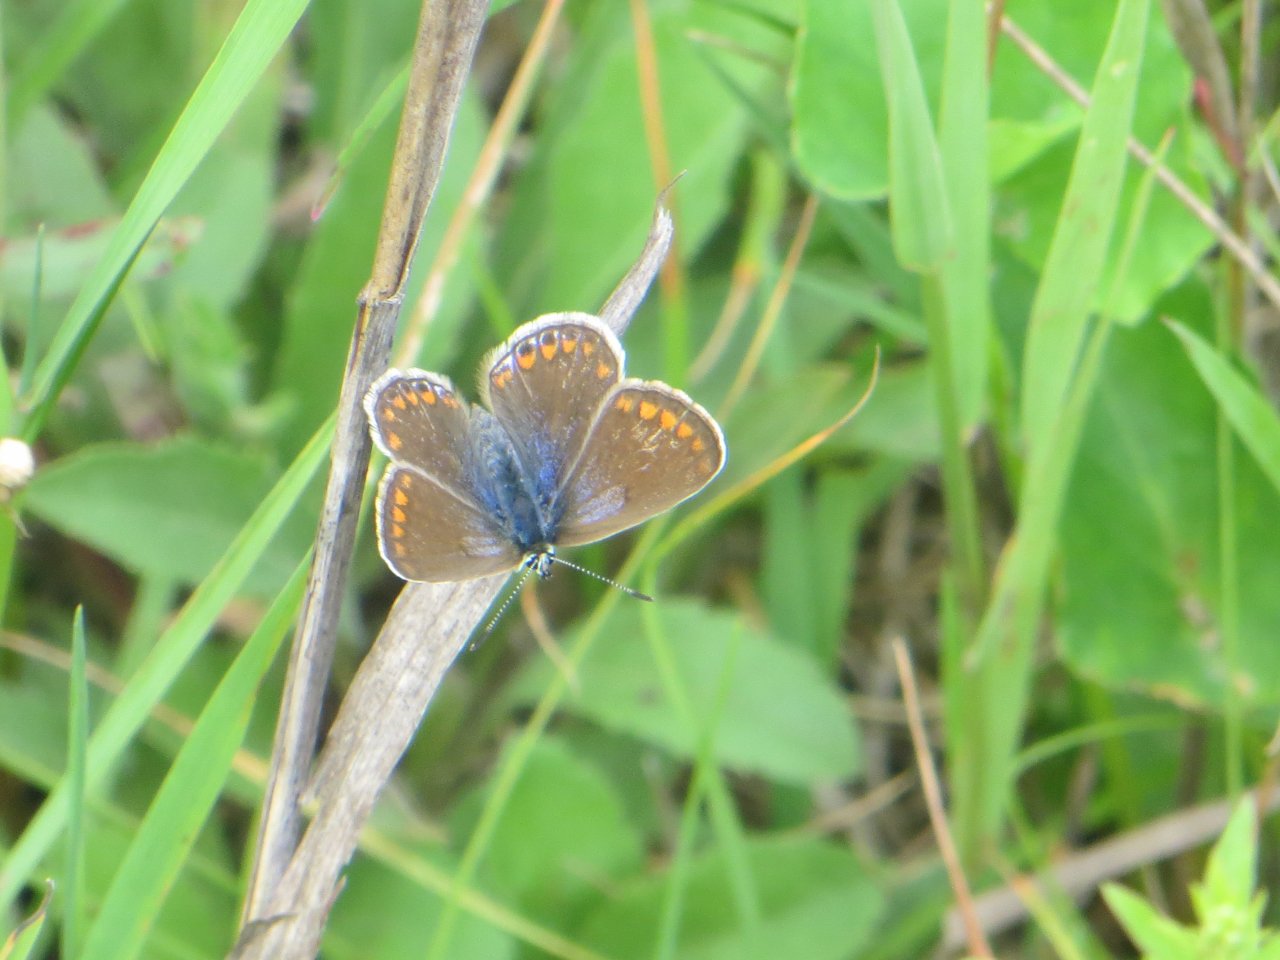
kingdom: Animalia
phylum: Arthropoda
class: Insecta
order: Lepidoptera
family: Lycaenidae
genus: Polyommatus
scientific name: Polyommatus icarus
